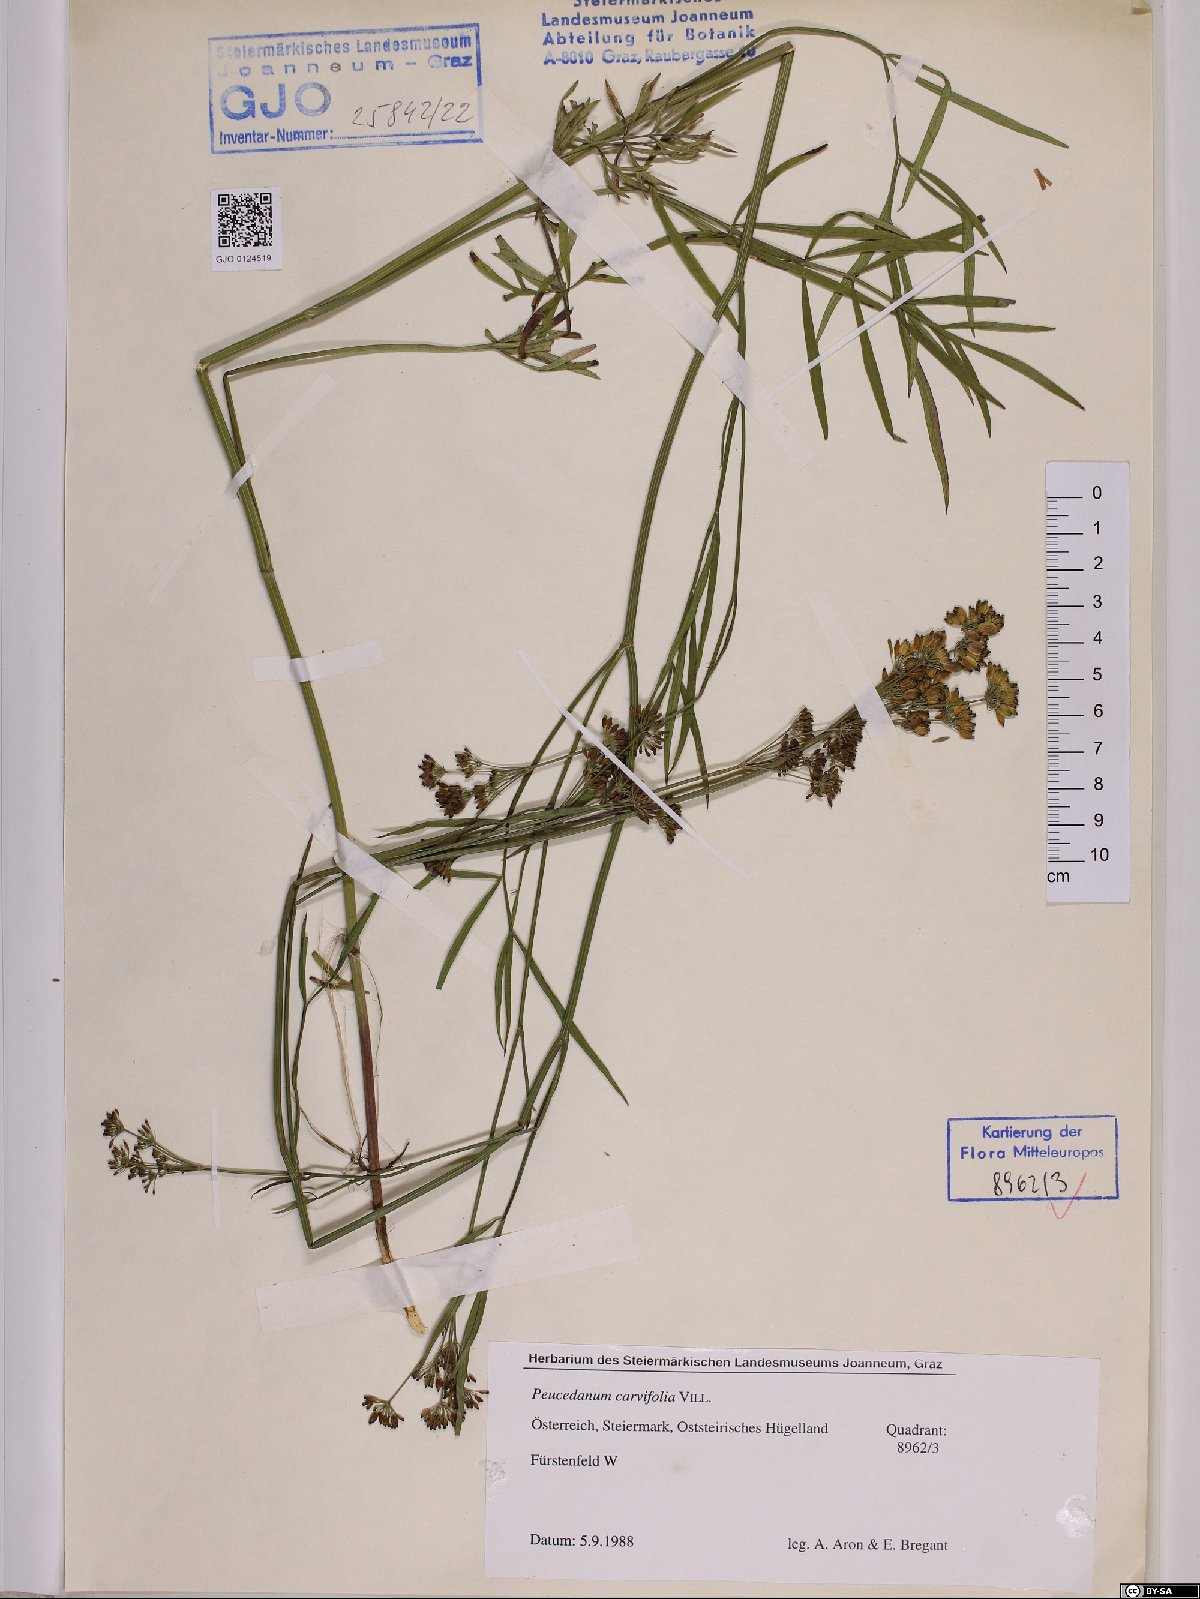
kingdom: Plantae
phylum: Tracheophyta
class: Magnoliopsida
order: Apiales
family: Apiaceae
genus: Dichoropetalum
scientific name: Dichoropetalum carvifolia
